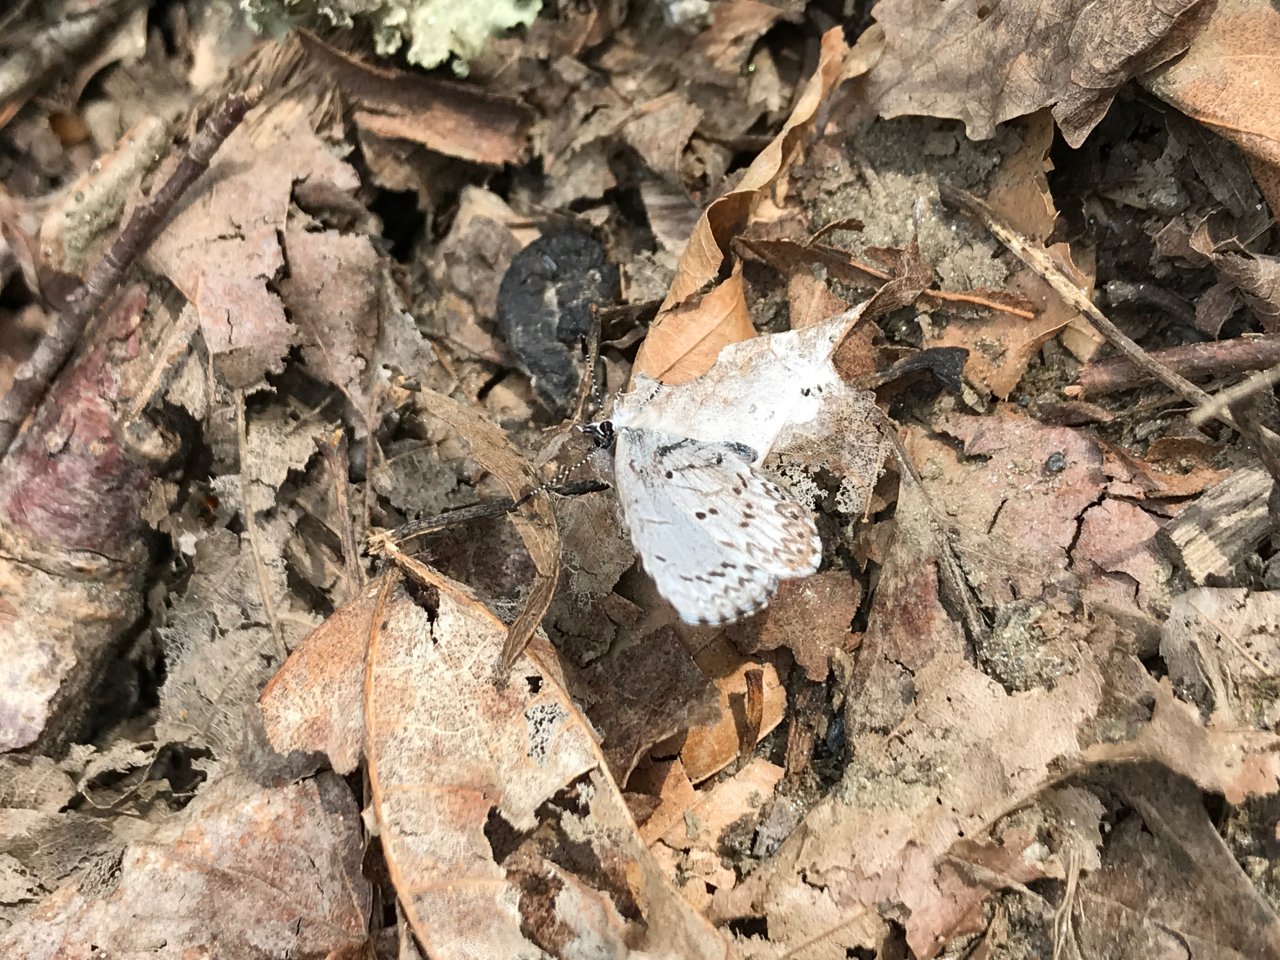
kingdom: Animalia
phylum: Arthropoda
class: Insecta
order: Lepidoptera
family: Lycaenidae
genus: Celastrina
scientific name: Celastrina lucia
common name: Northern Spring Azure
